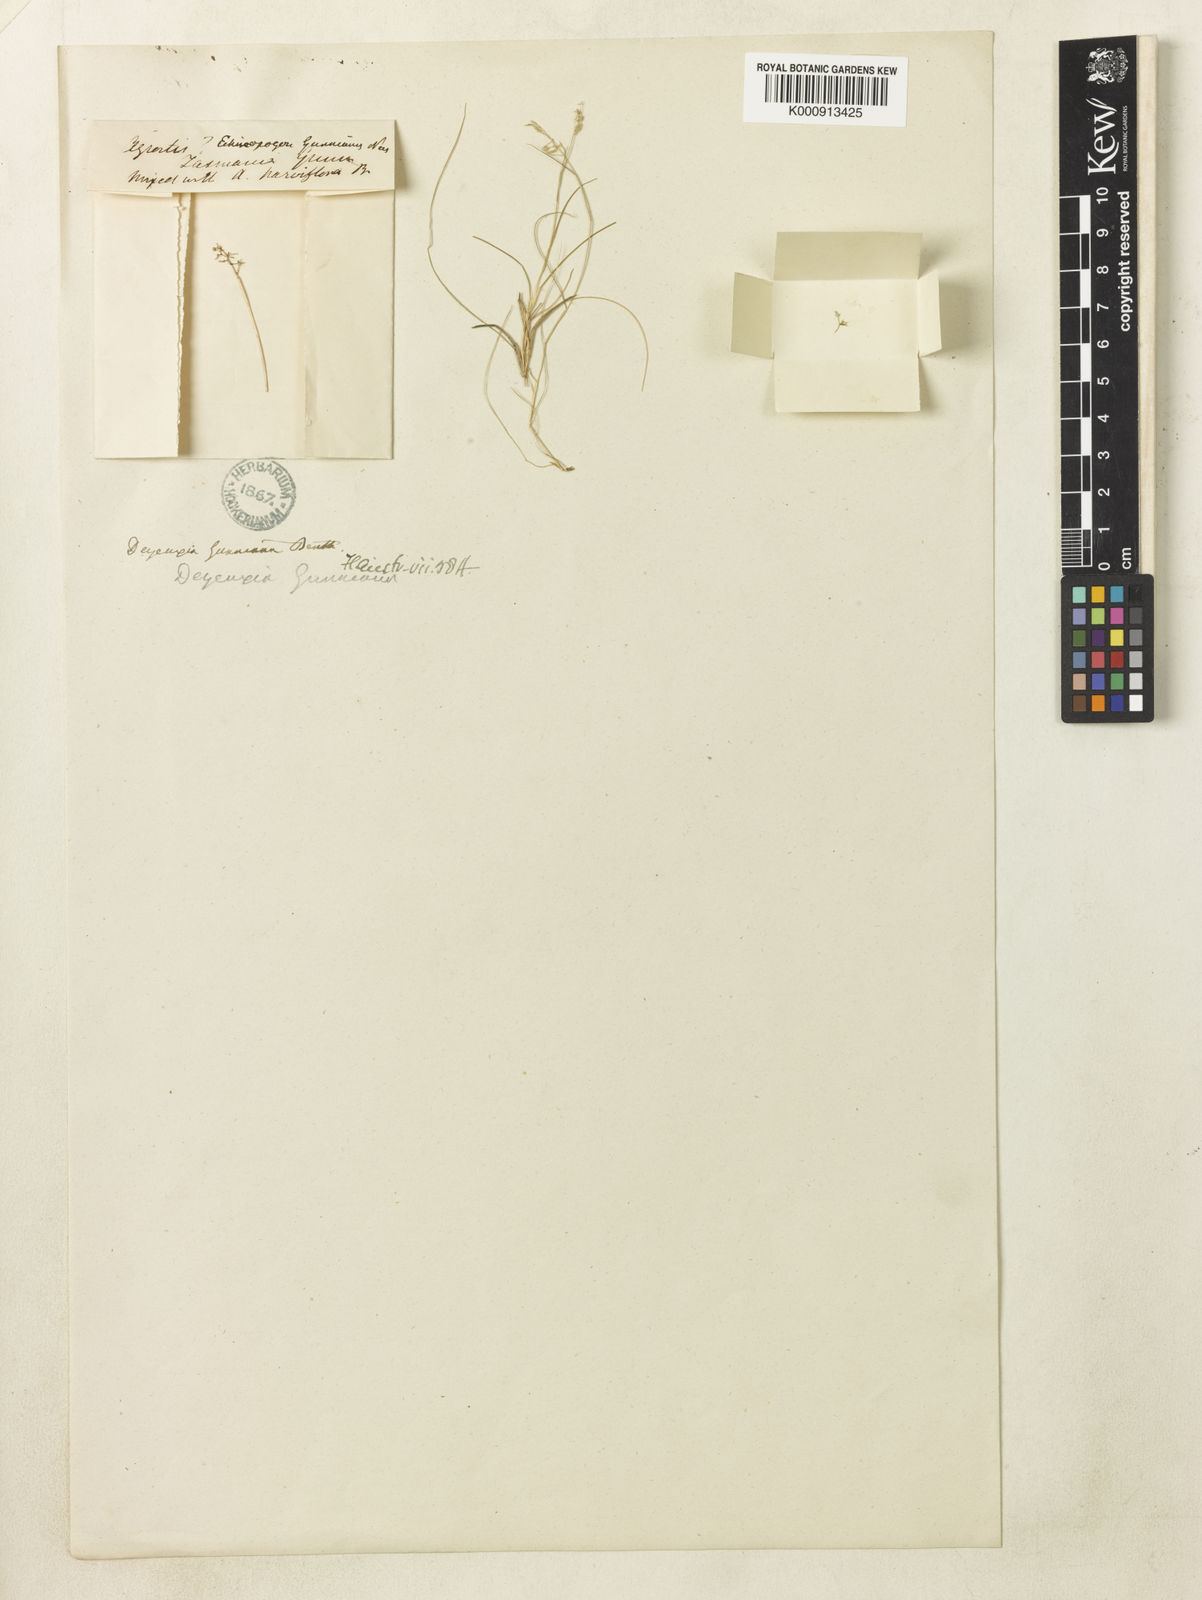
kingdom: Plantae
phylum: Tracheophyta
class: Liliopsida
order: Poales
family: Poaceae
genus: Ancistragrostis
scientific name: Ancistragrostis
